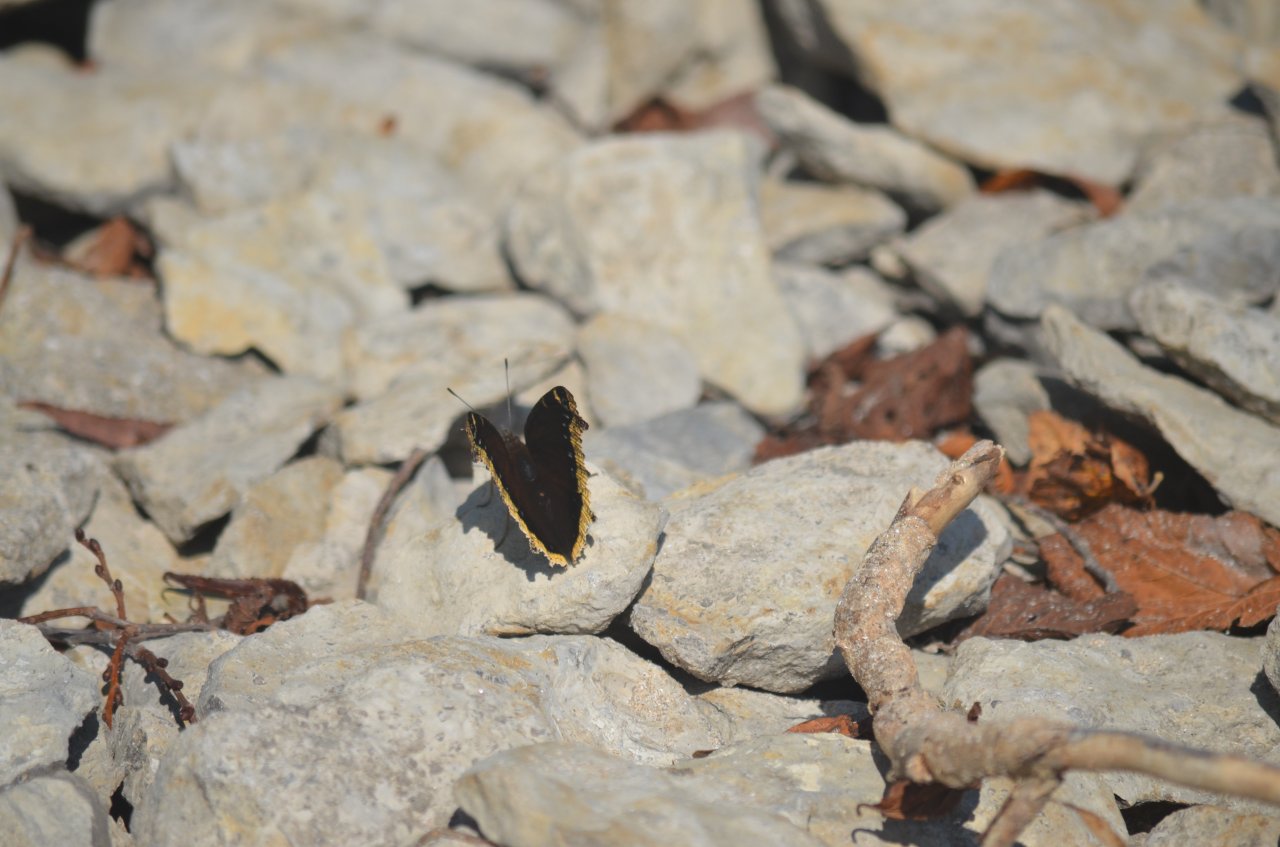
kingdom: Animalia
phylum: Arthropoda
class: Insecta
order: Lepidoptera
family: Nymphalidae
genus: Nymphalis
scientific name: Nymphalis antiopa
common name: Mourning Cloak
